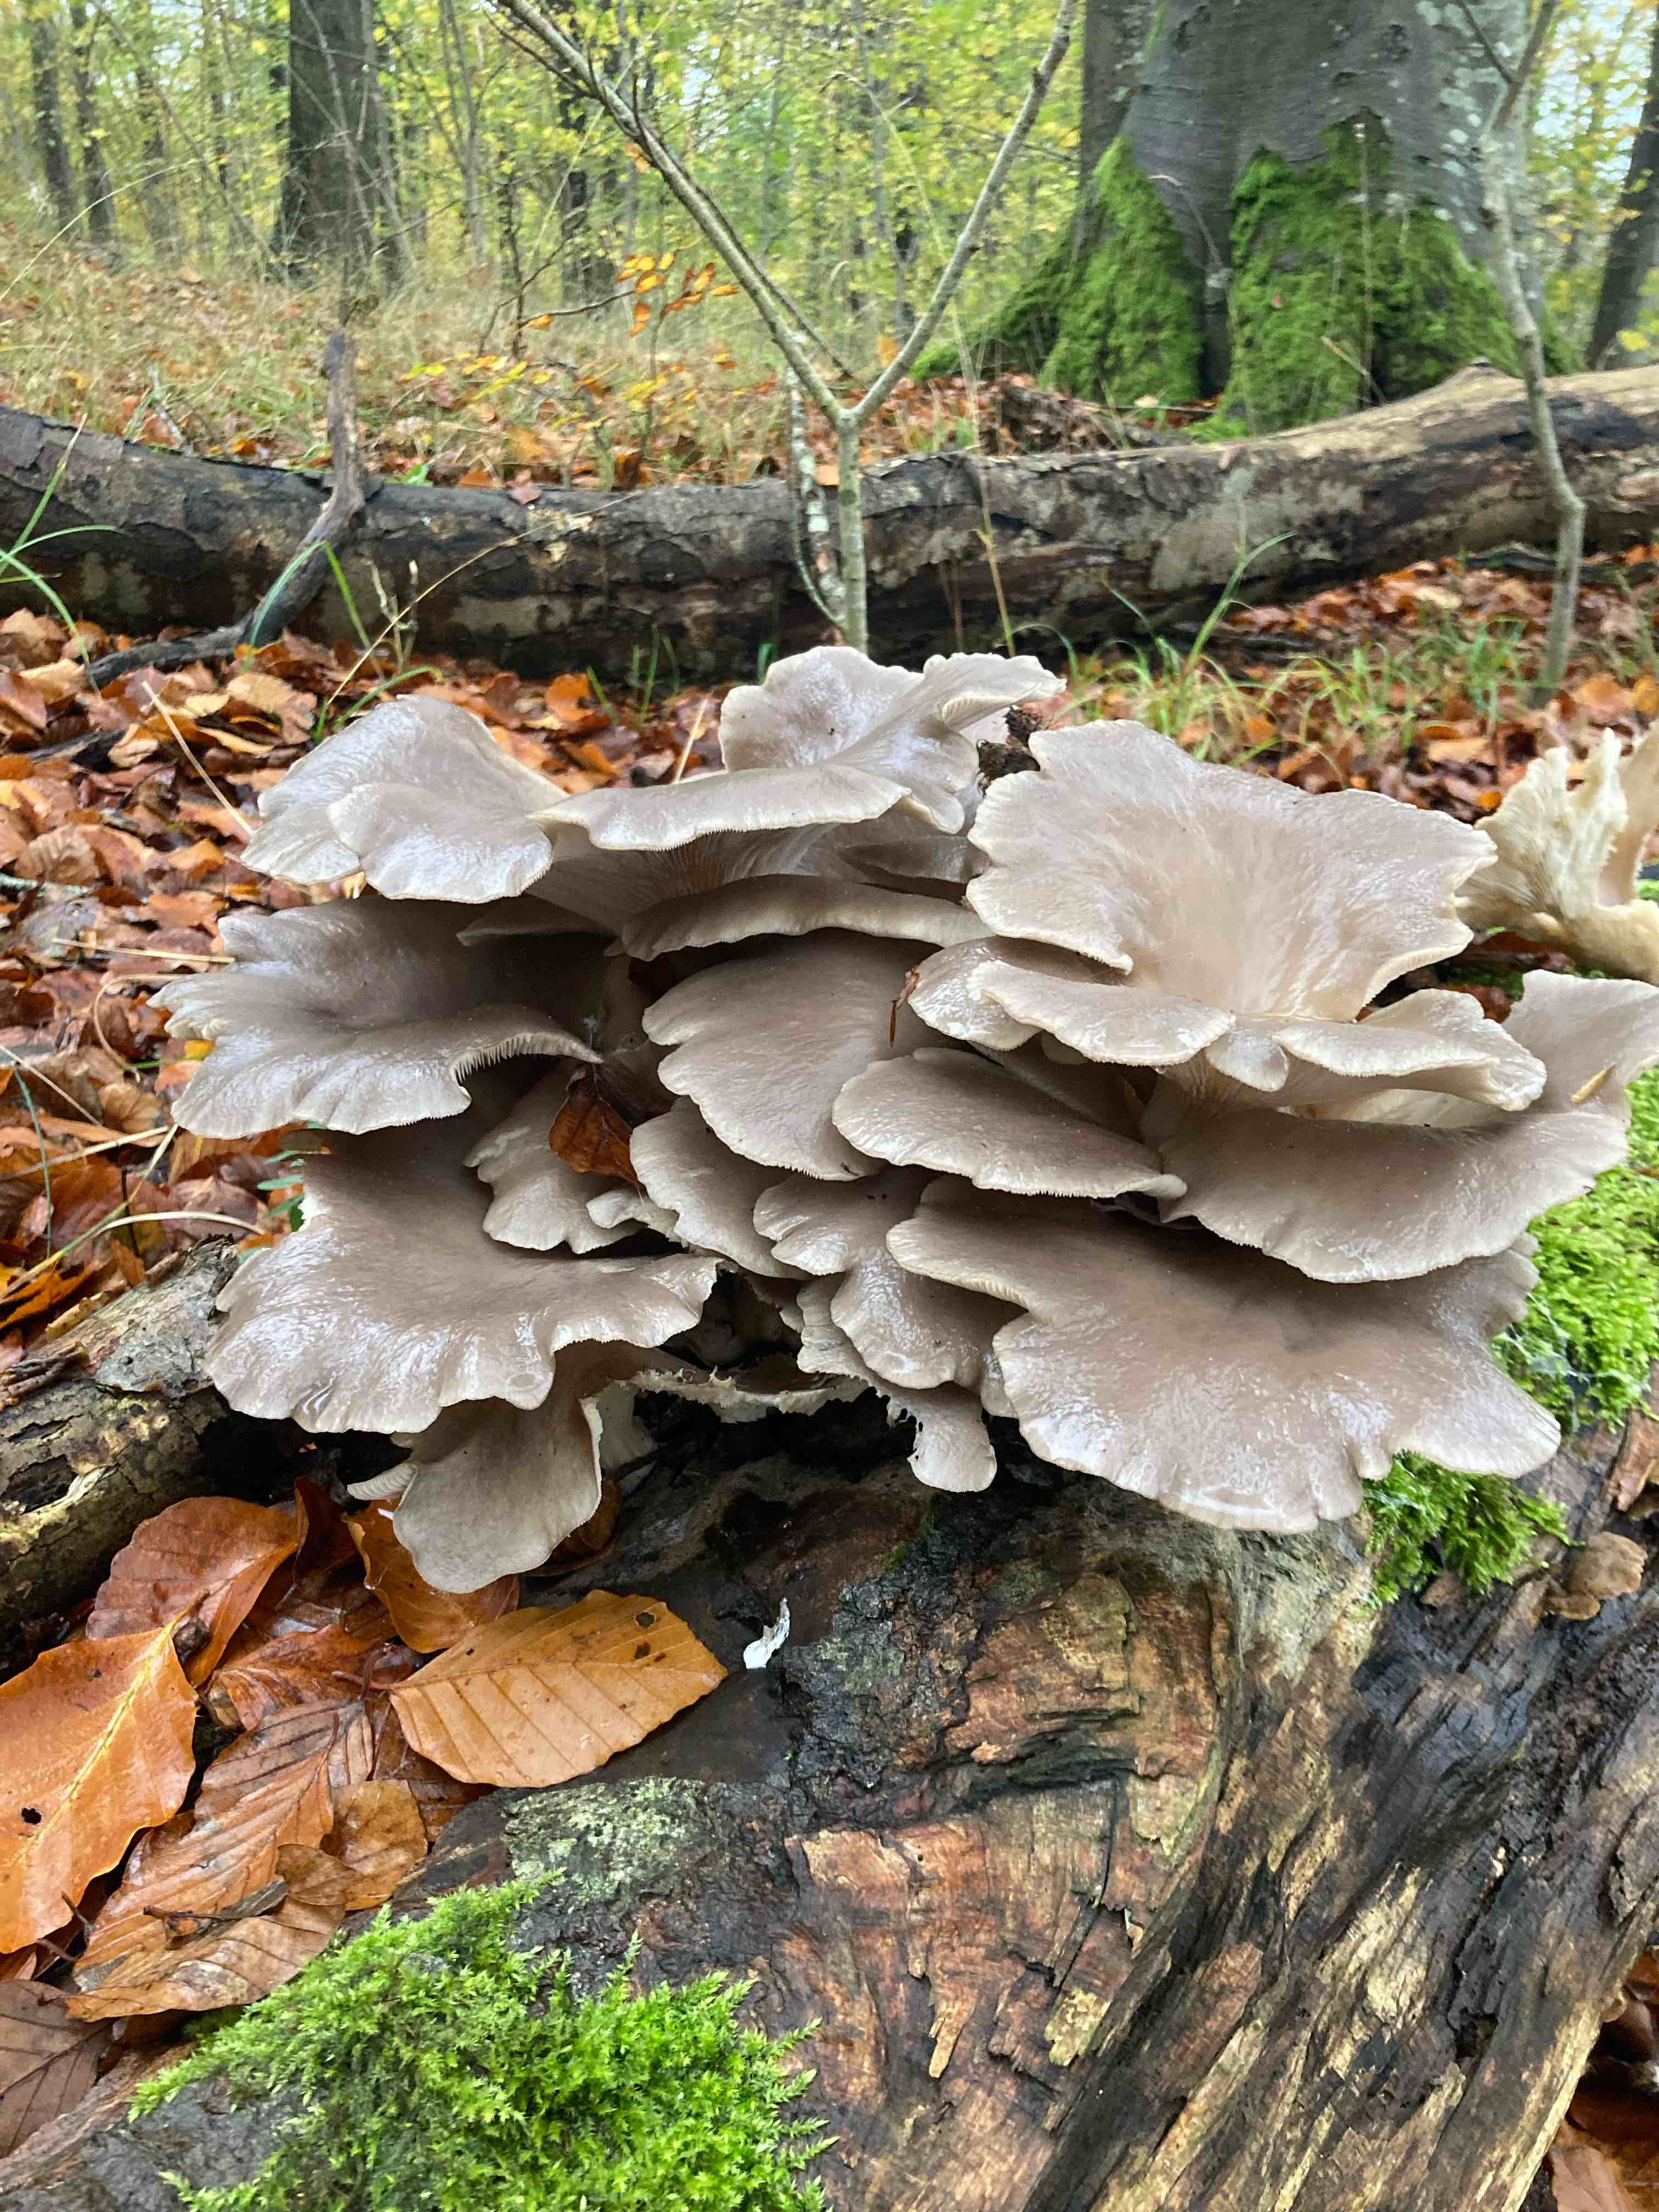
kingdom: Fungi
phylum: Basidiomycota
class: Agaricomycetes
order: Agaricales
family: Pleurotaceae
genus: Pleurotus
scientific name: Pleurotus ostreatus
